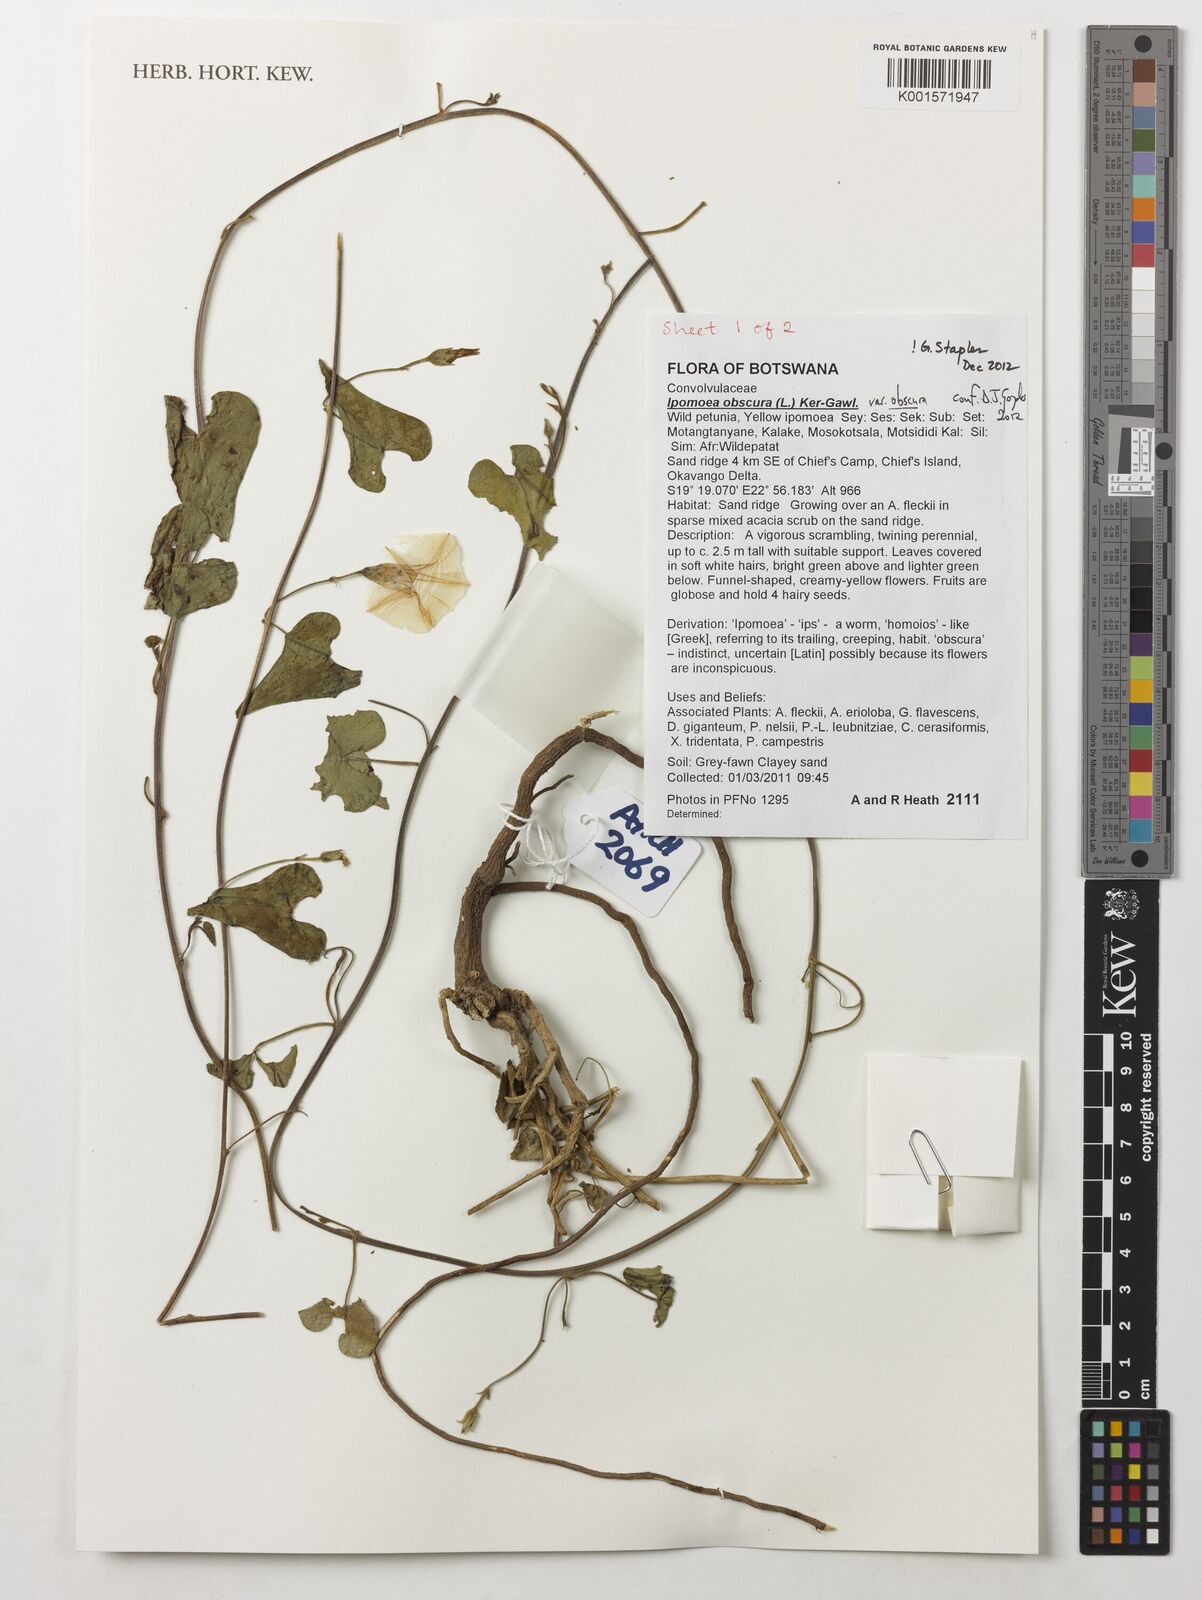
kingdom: Plantae
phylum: Tracheophyta
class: Magnoliopsida
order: Solanales
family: Convolvulaceae
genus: Ipomoea
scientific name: Ipomoea obscura
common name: Obscure morning-glory
